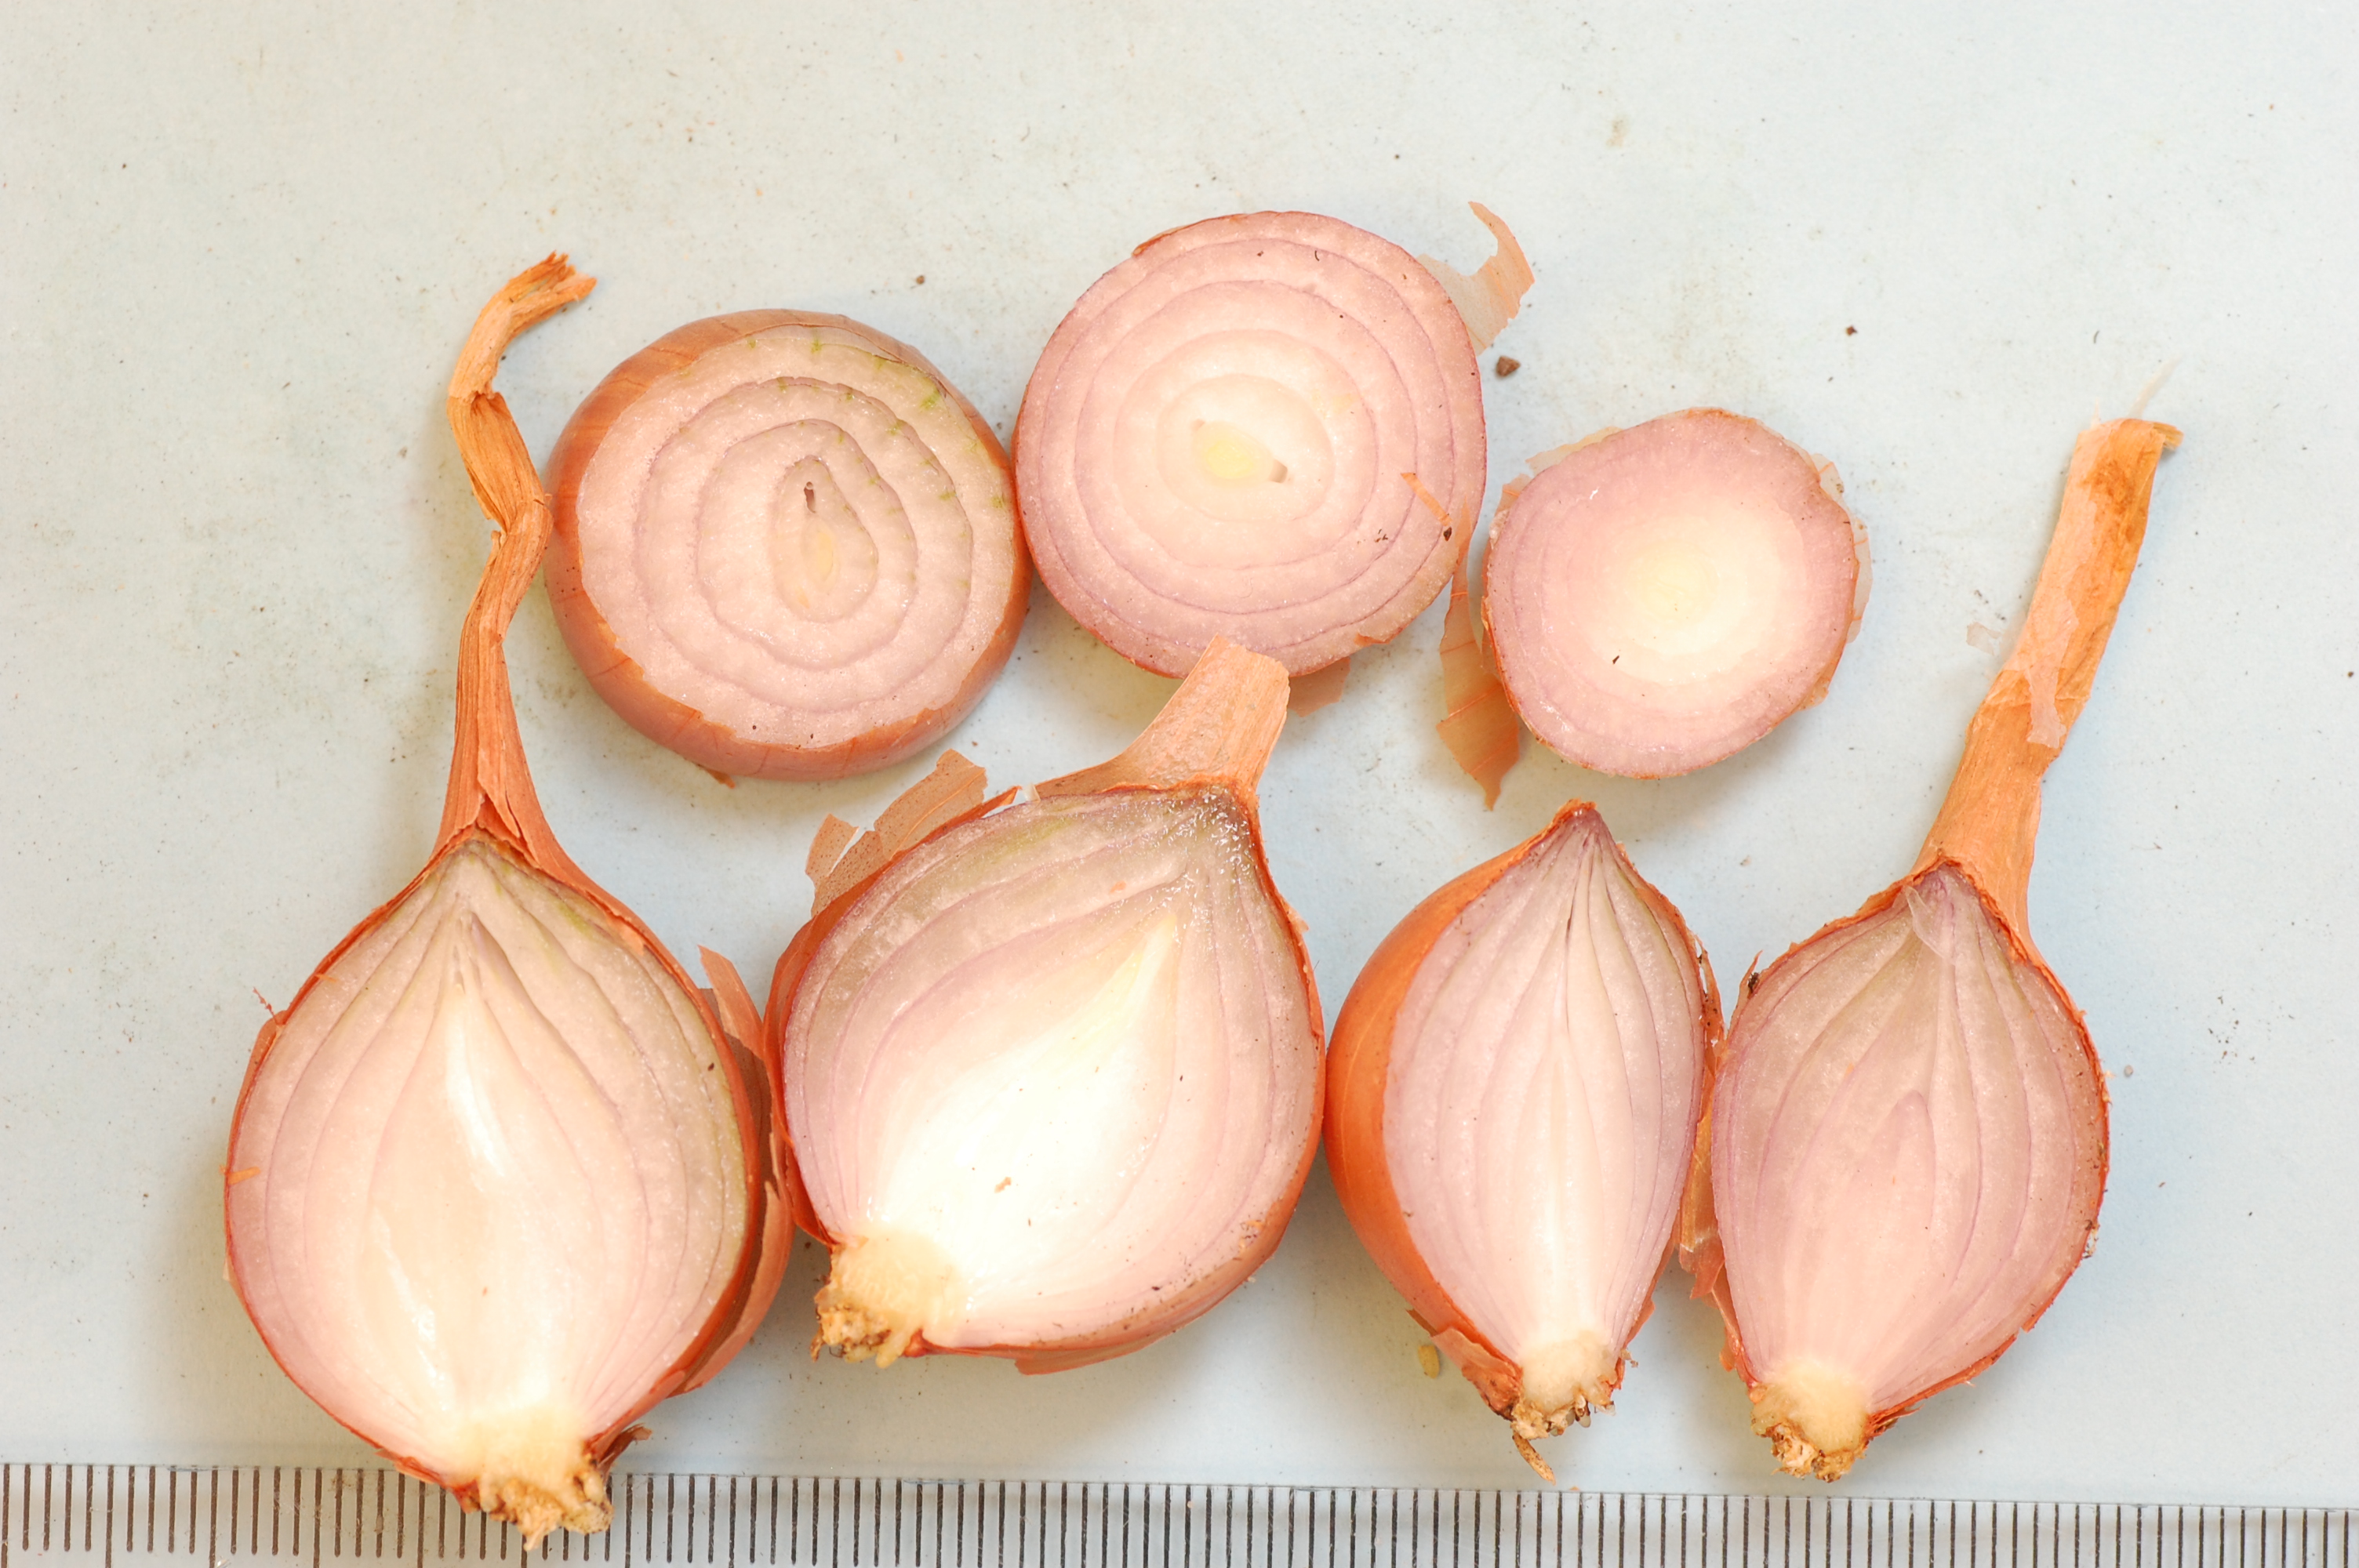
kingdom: Plantae
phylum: Tracheophyta
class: Liliopsida
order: Asparagales
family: Amaryllidaceae
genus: Allium
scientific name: Allium cepa
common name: Onion
